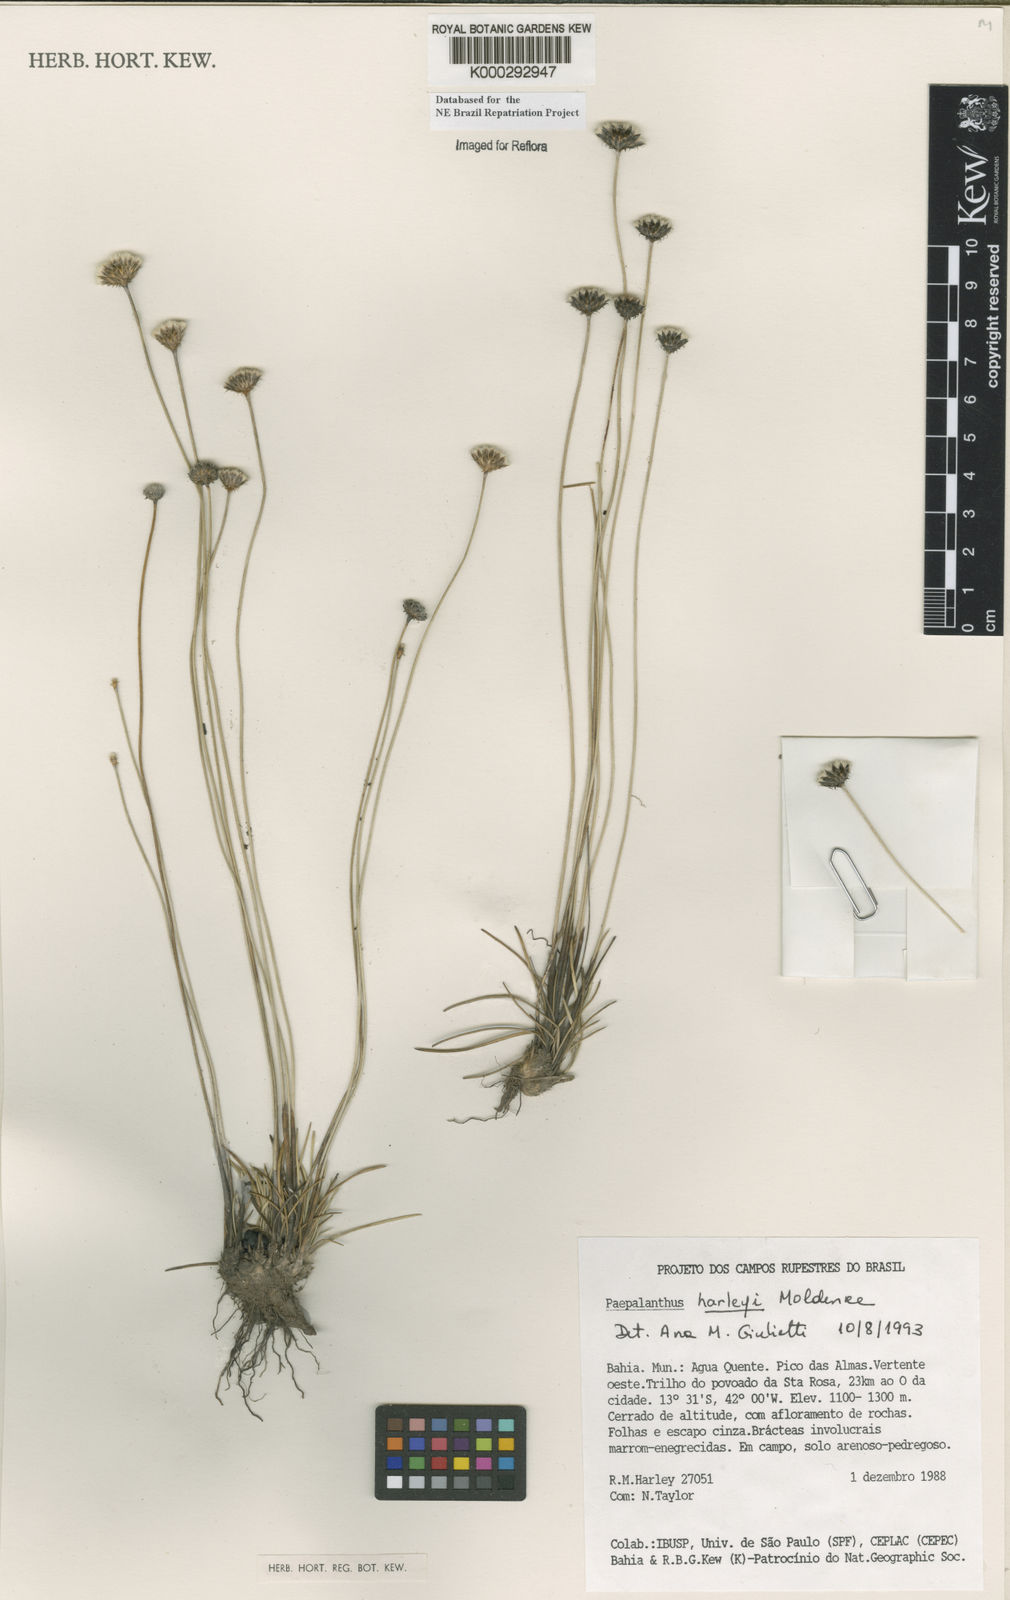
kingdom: Plantae
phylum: Tracheophyta
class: Liliopsida
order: Poales
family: Eriocaulaceae
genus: Paepalanthus
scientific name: Paepalanthus harleyi
